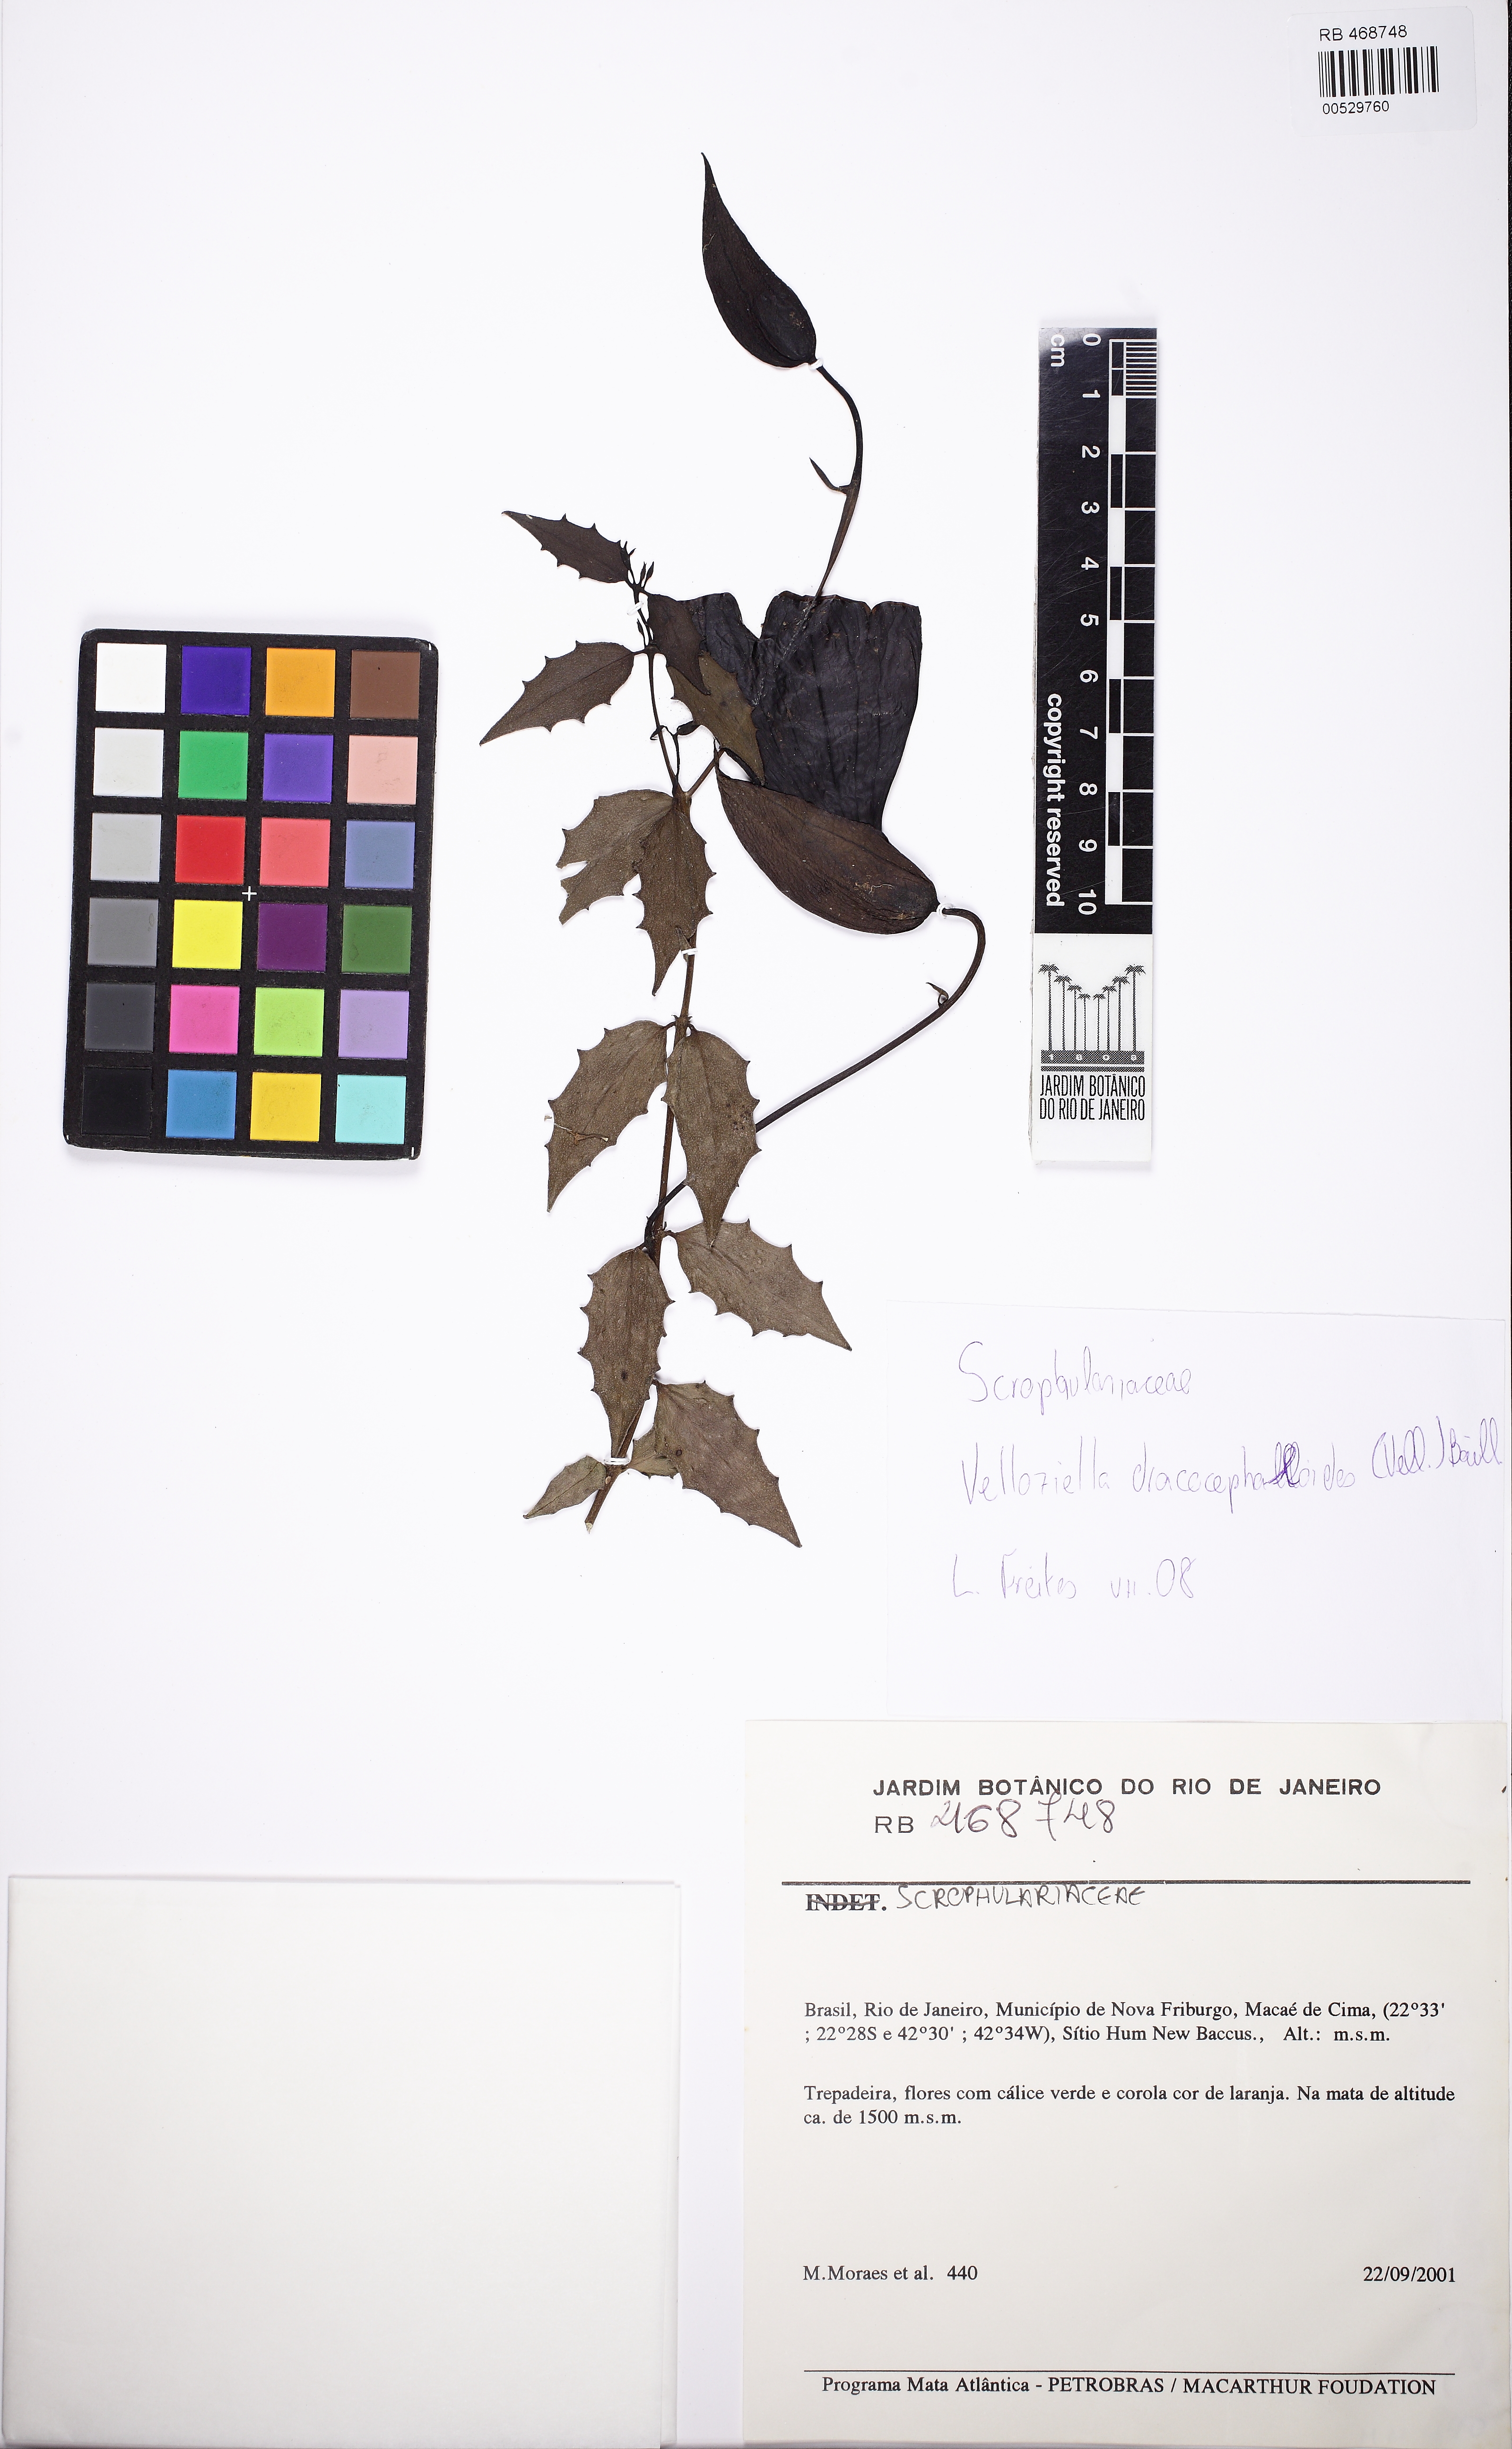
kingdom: Plantae
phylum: Tracheophyta
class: Magnoliopsida
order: Lamiales
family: Orobanchaceae
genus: Vellosiella
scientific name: Vellosiella dracocephaloides
